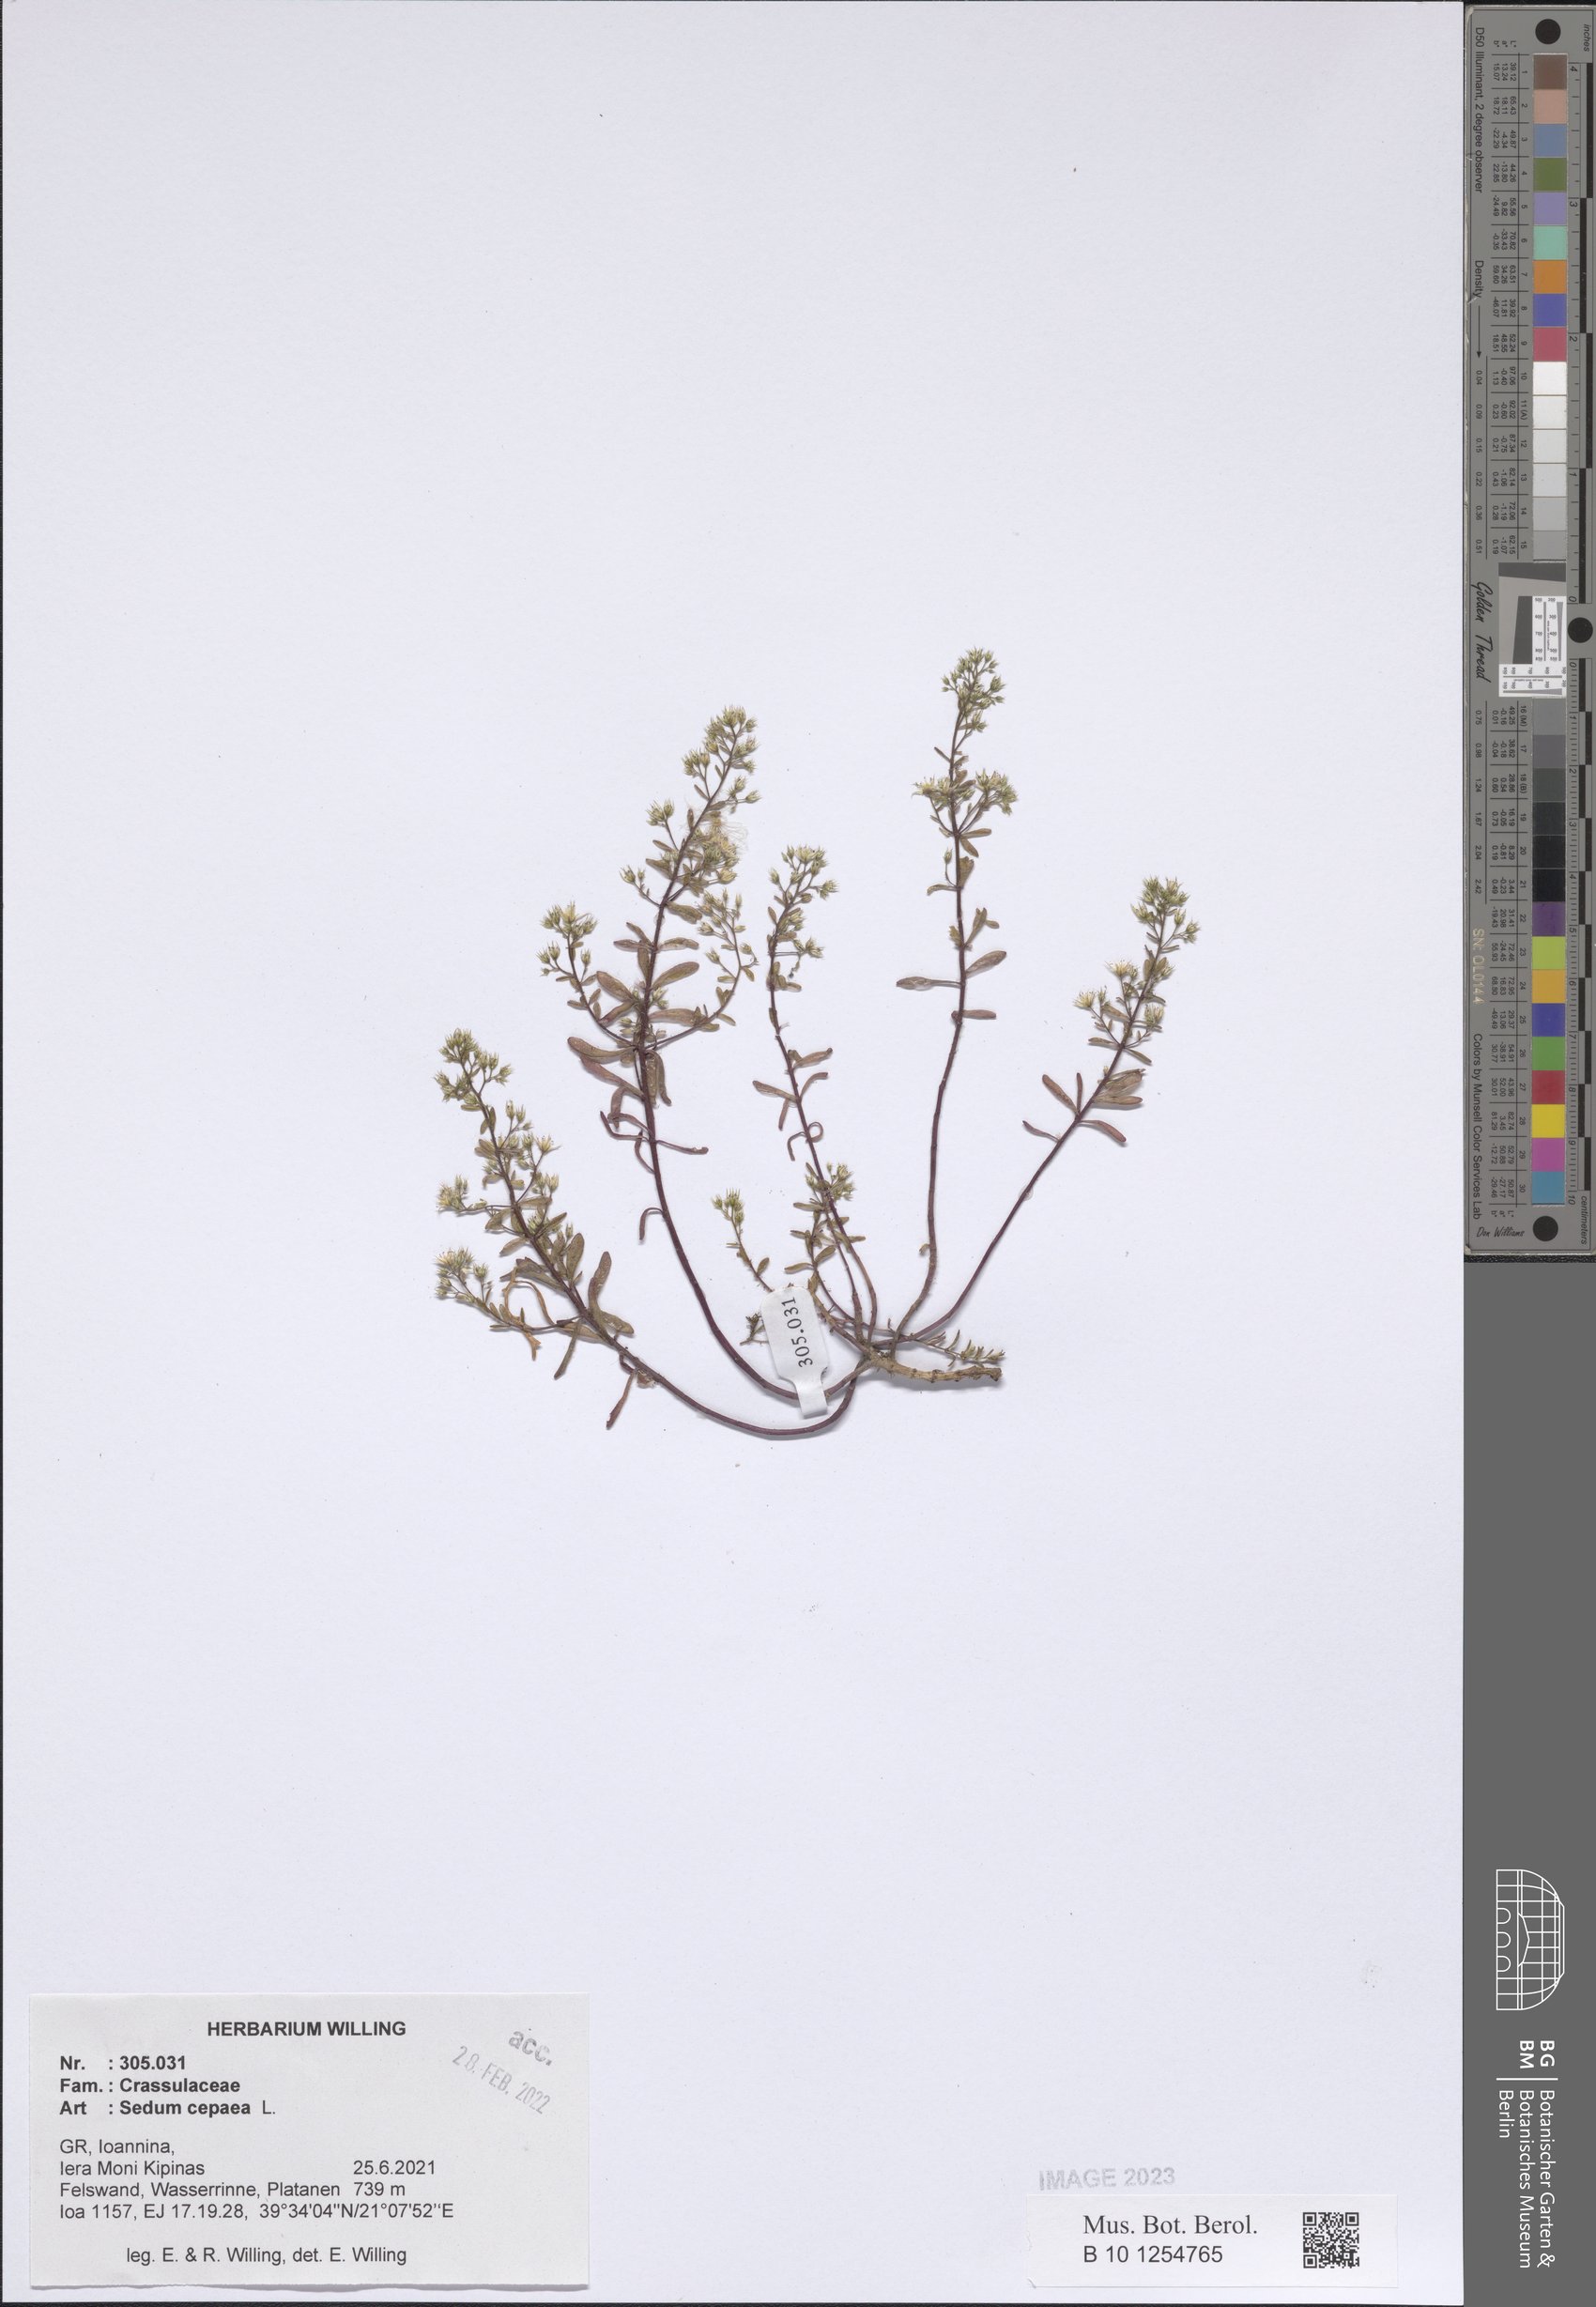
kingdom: Plantae
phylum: Tracheophyta
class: Magnoliopsida
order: Saxifragales
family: Crassulaceae
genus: Sedum
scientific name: Sedum cepaea
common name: Pink stonecrop
